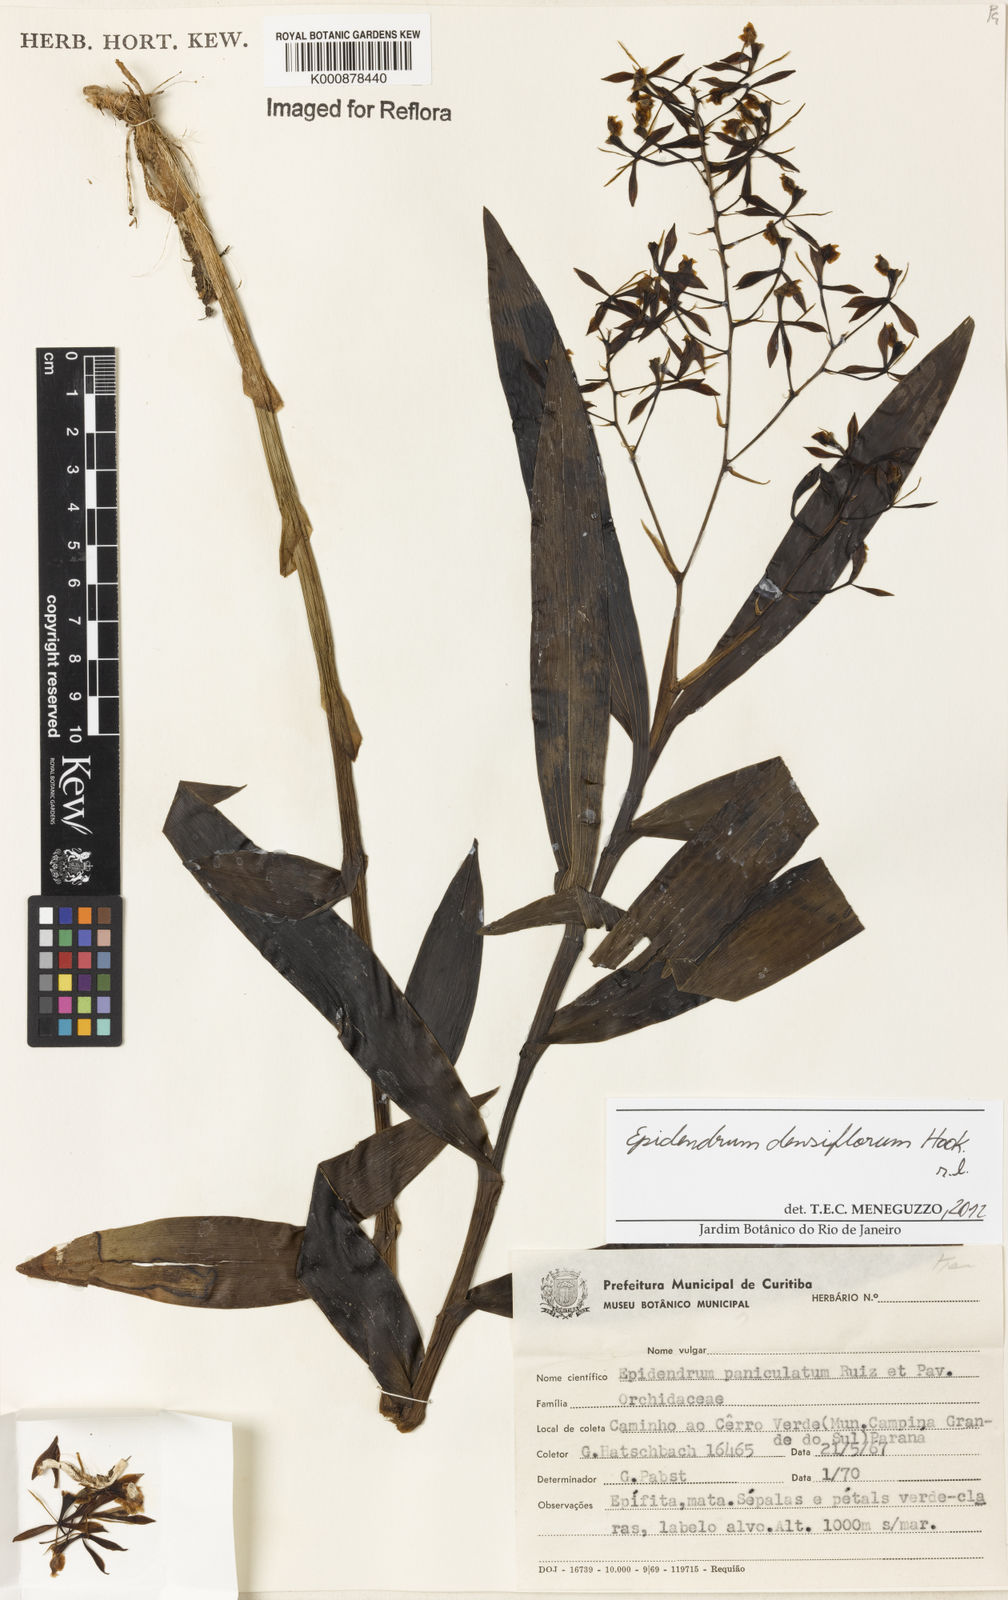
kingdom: Plantae
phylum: Tracheophyta
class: Liliopsida
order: Asparagales
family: Orchidaceae
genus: Epidendrum
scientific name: Epidendrum densiflorum
